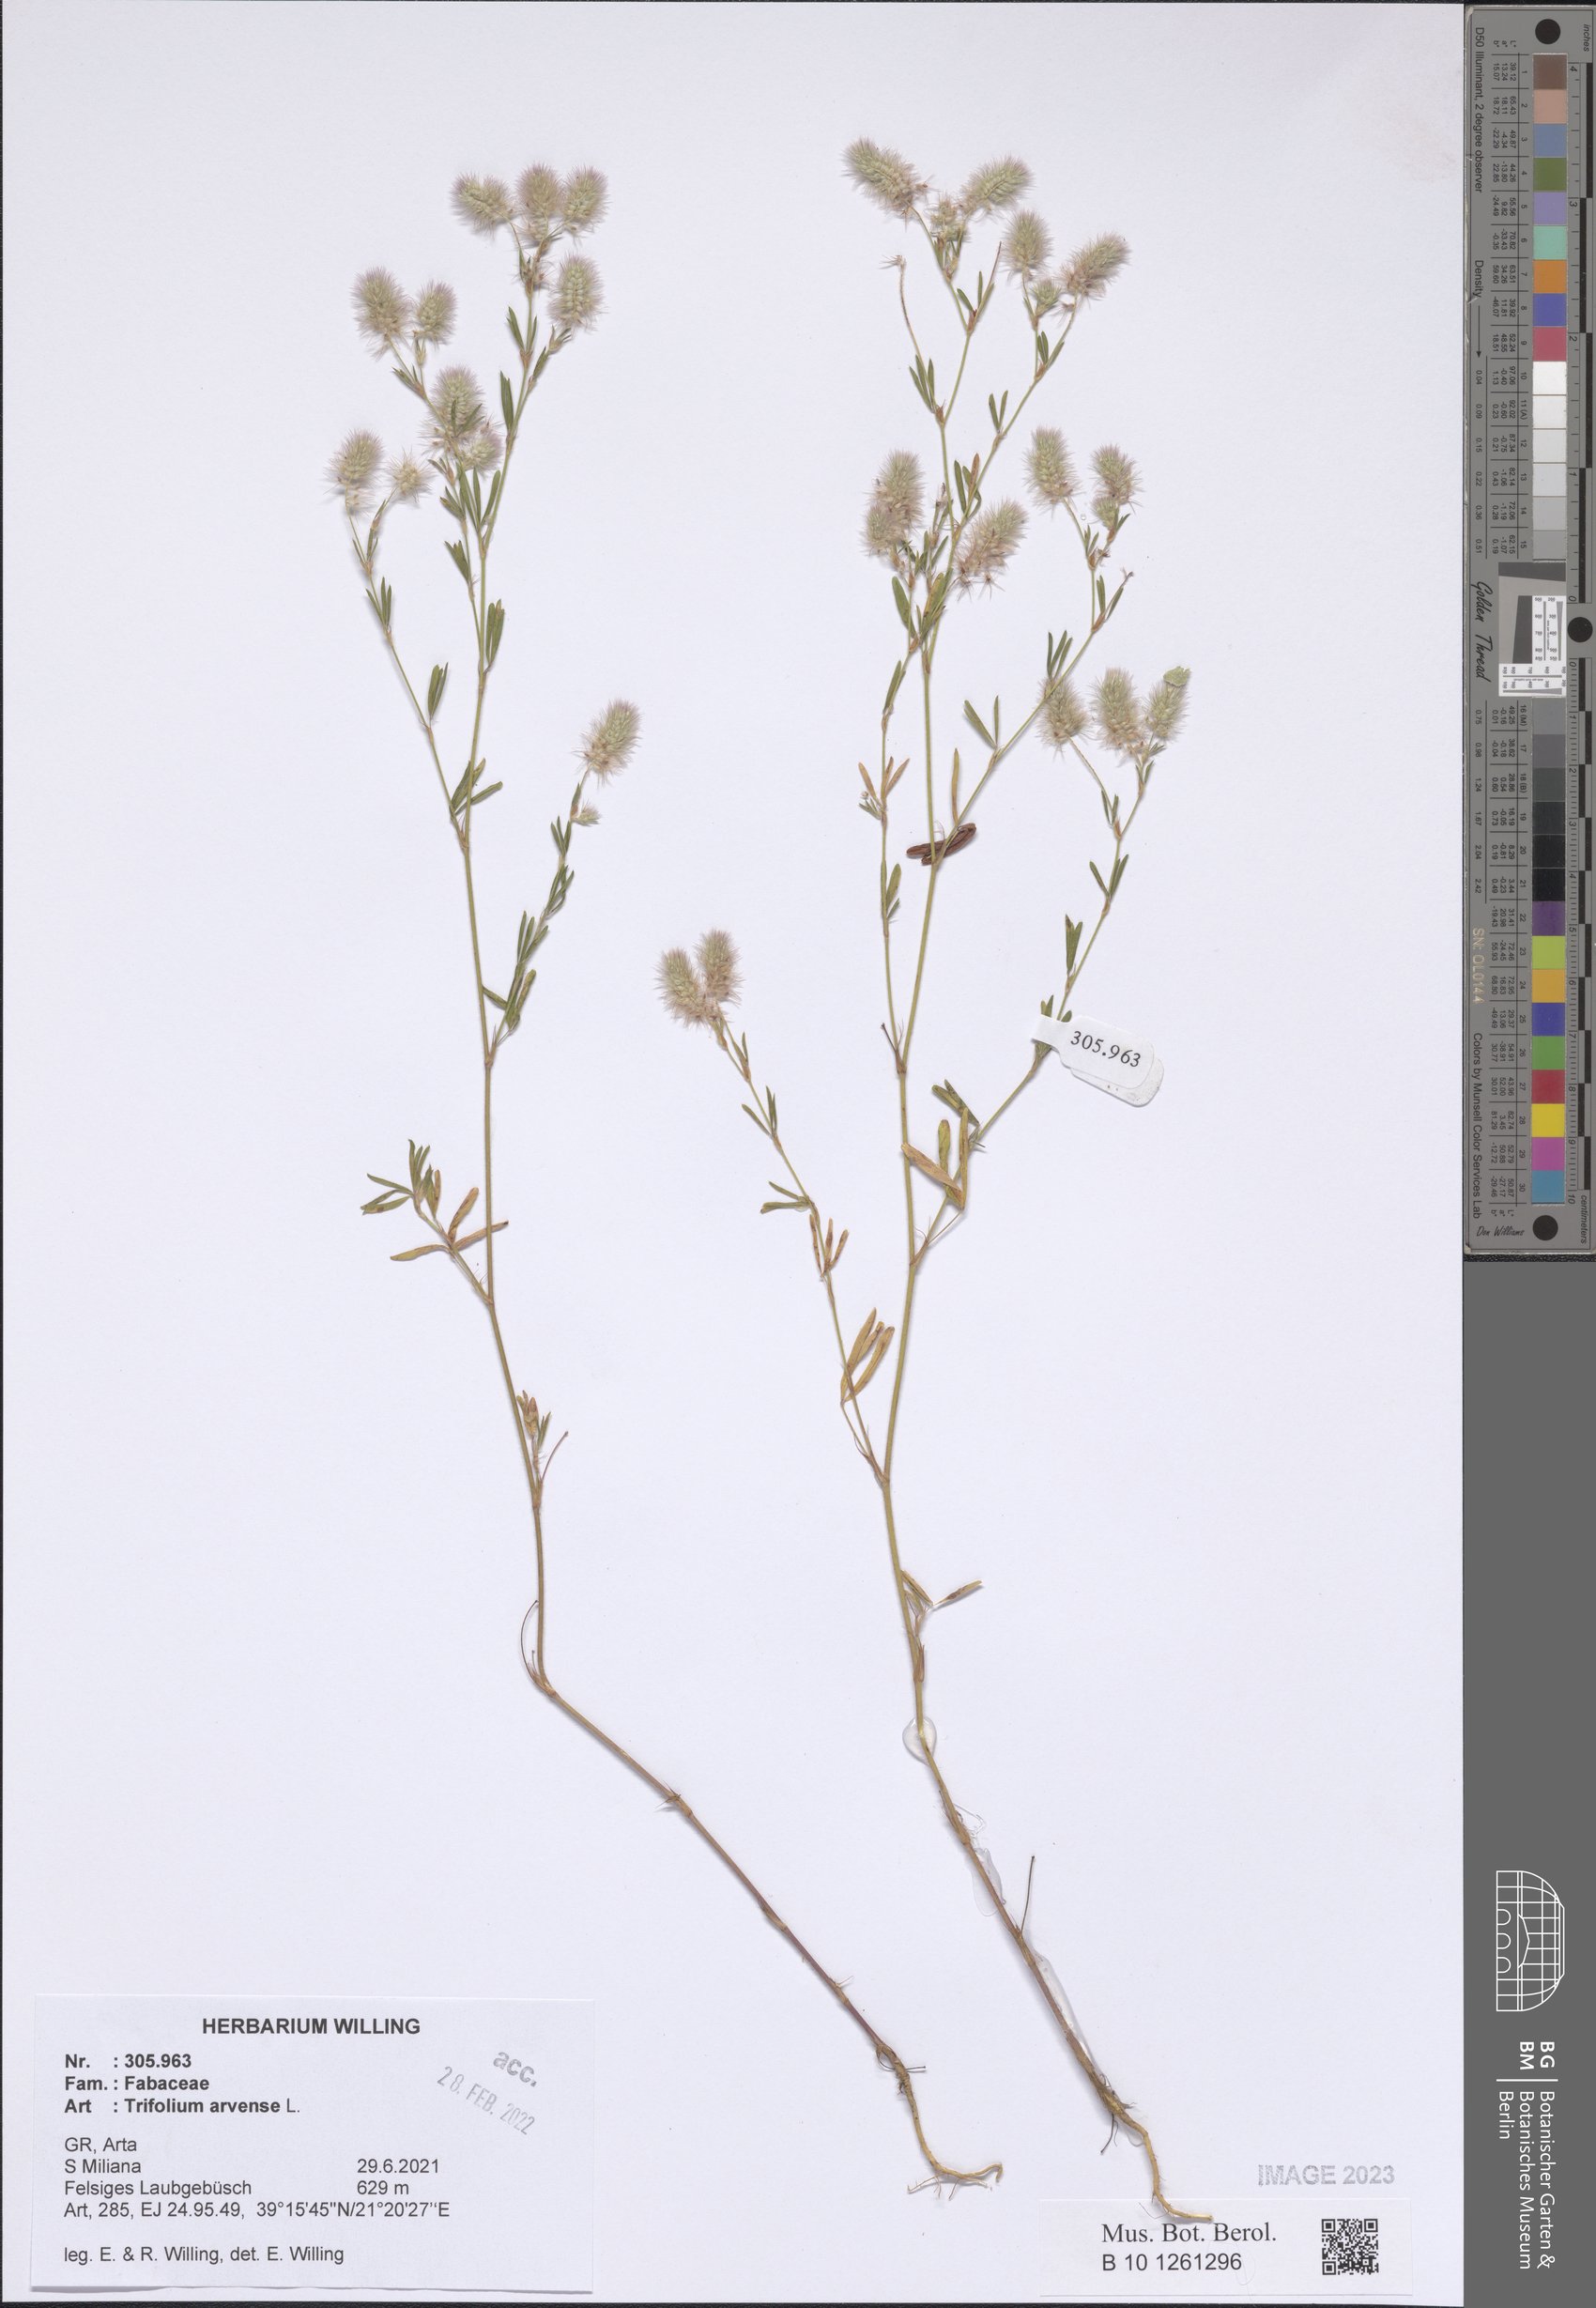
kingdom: Plantae
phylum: Tracheophyta
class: Magnoliopsida
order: Fabales
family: Fabaceae
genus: Trifolium
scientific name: Trifolium arvense
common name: Hare's-foot clover
